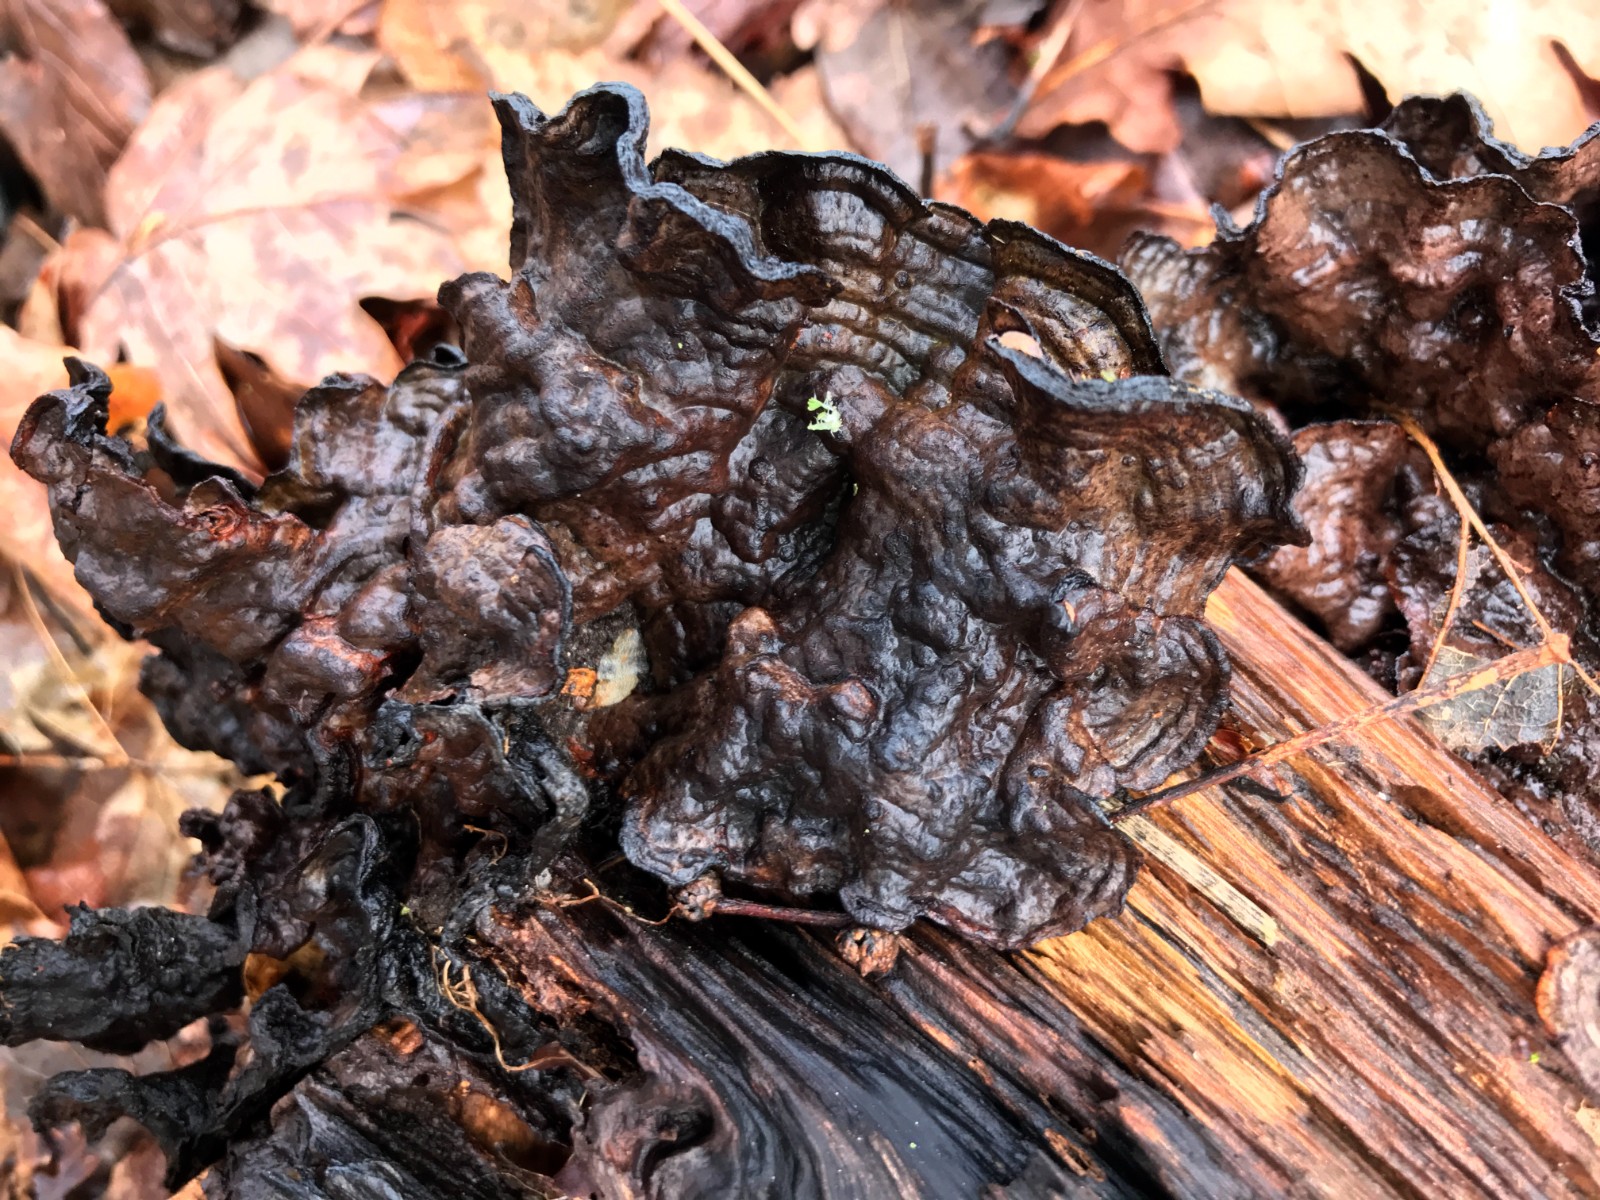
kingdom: Fungi
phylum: Basidiomycota
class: Agaricomycetes
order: Hymenochaetales
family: Hymenochaetaceae
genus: Hymenochaete
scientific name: Hymenochaete rubiginosa
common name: stiv ruslædersvamp
